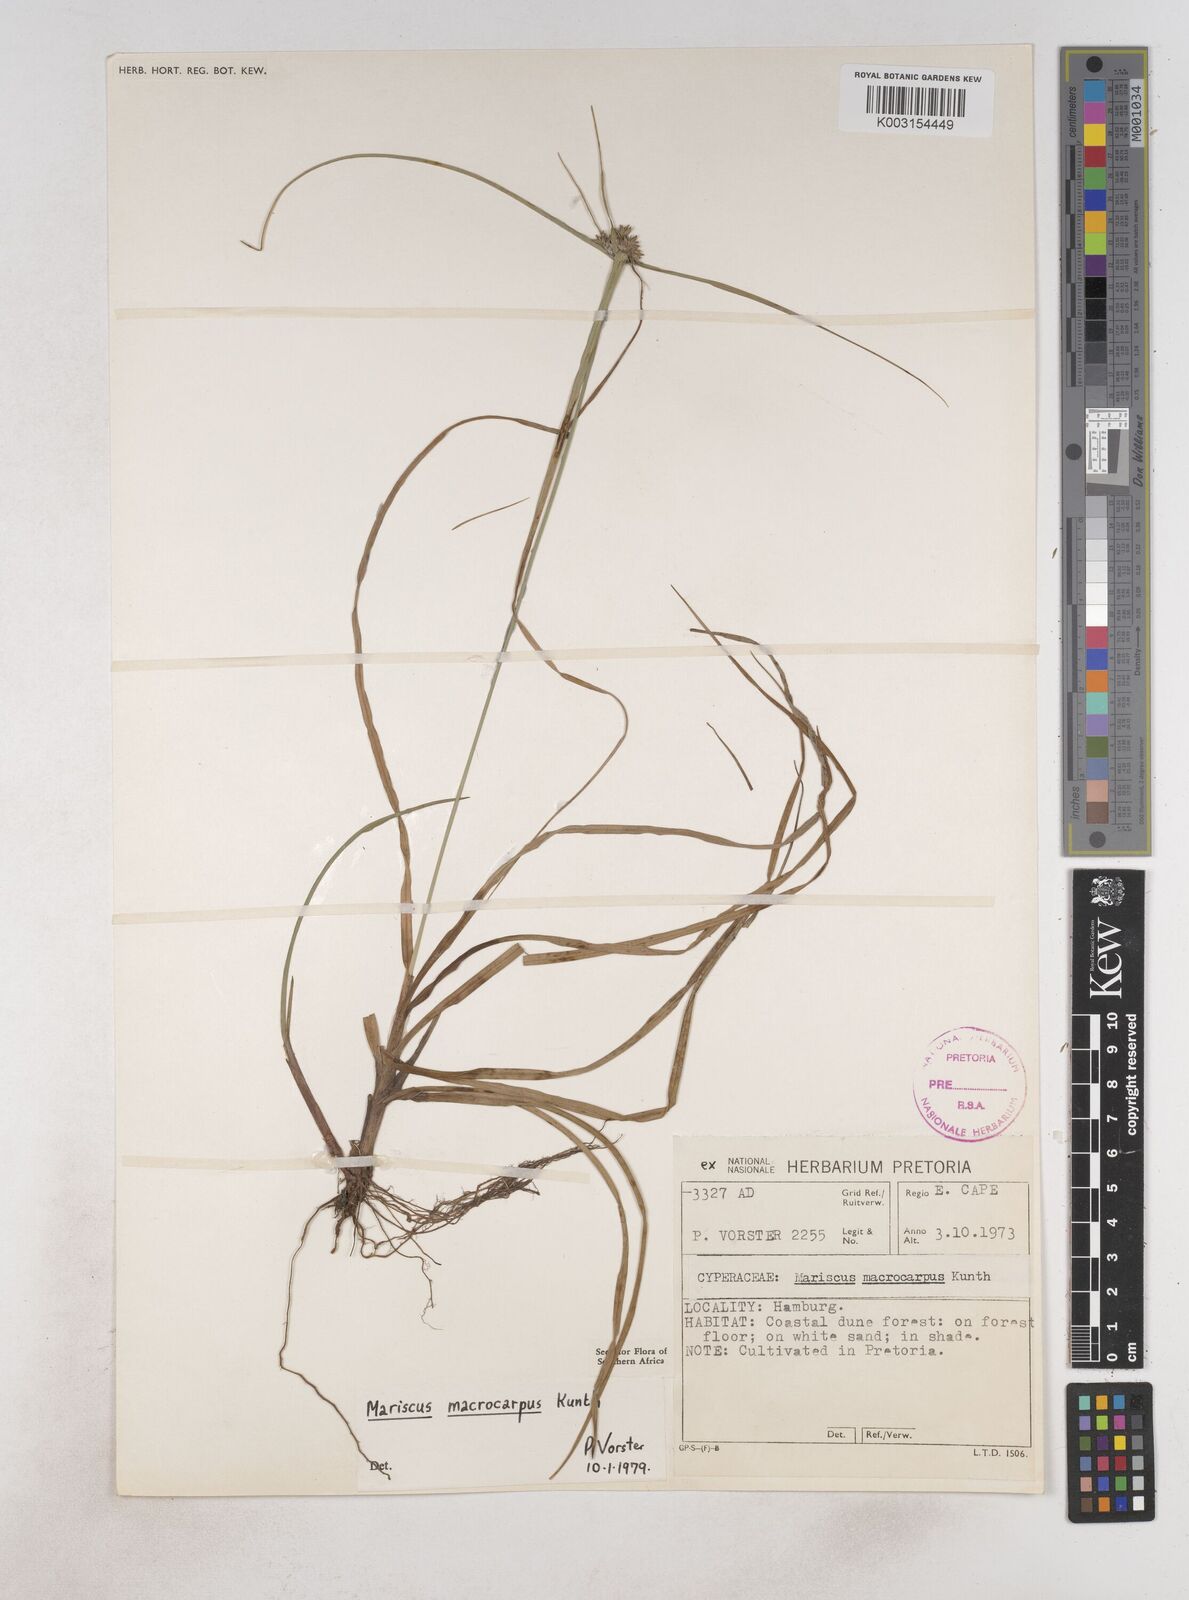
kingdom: Plantae
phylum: Tracheophyta
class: Liliopsida
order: Poales
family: Cyperaceae
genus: Cyperus
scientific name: Cyperus macrocarpus
